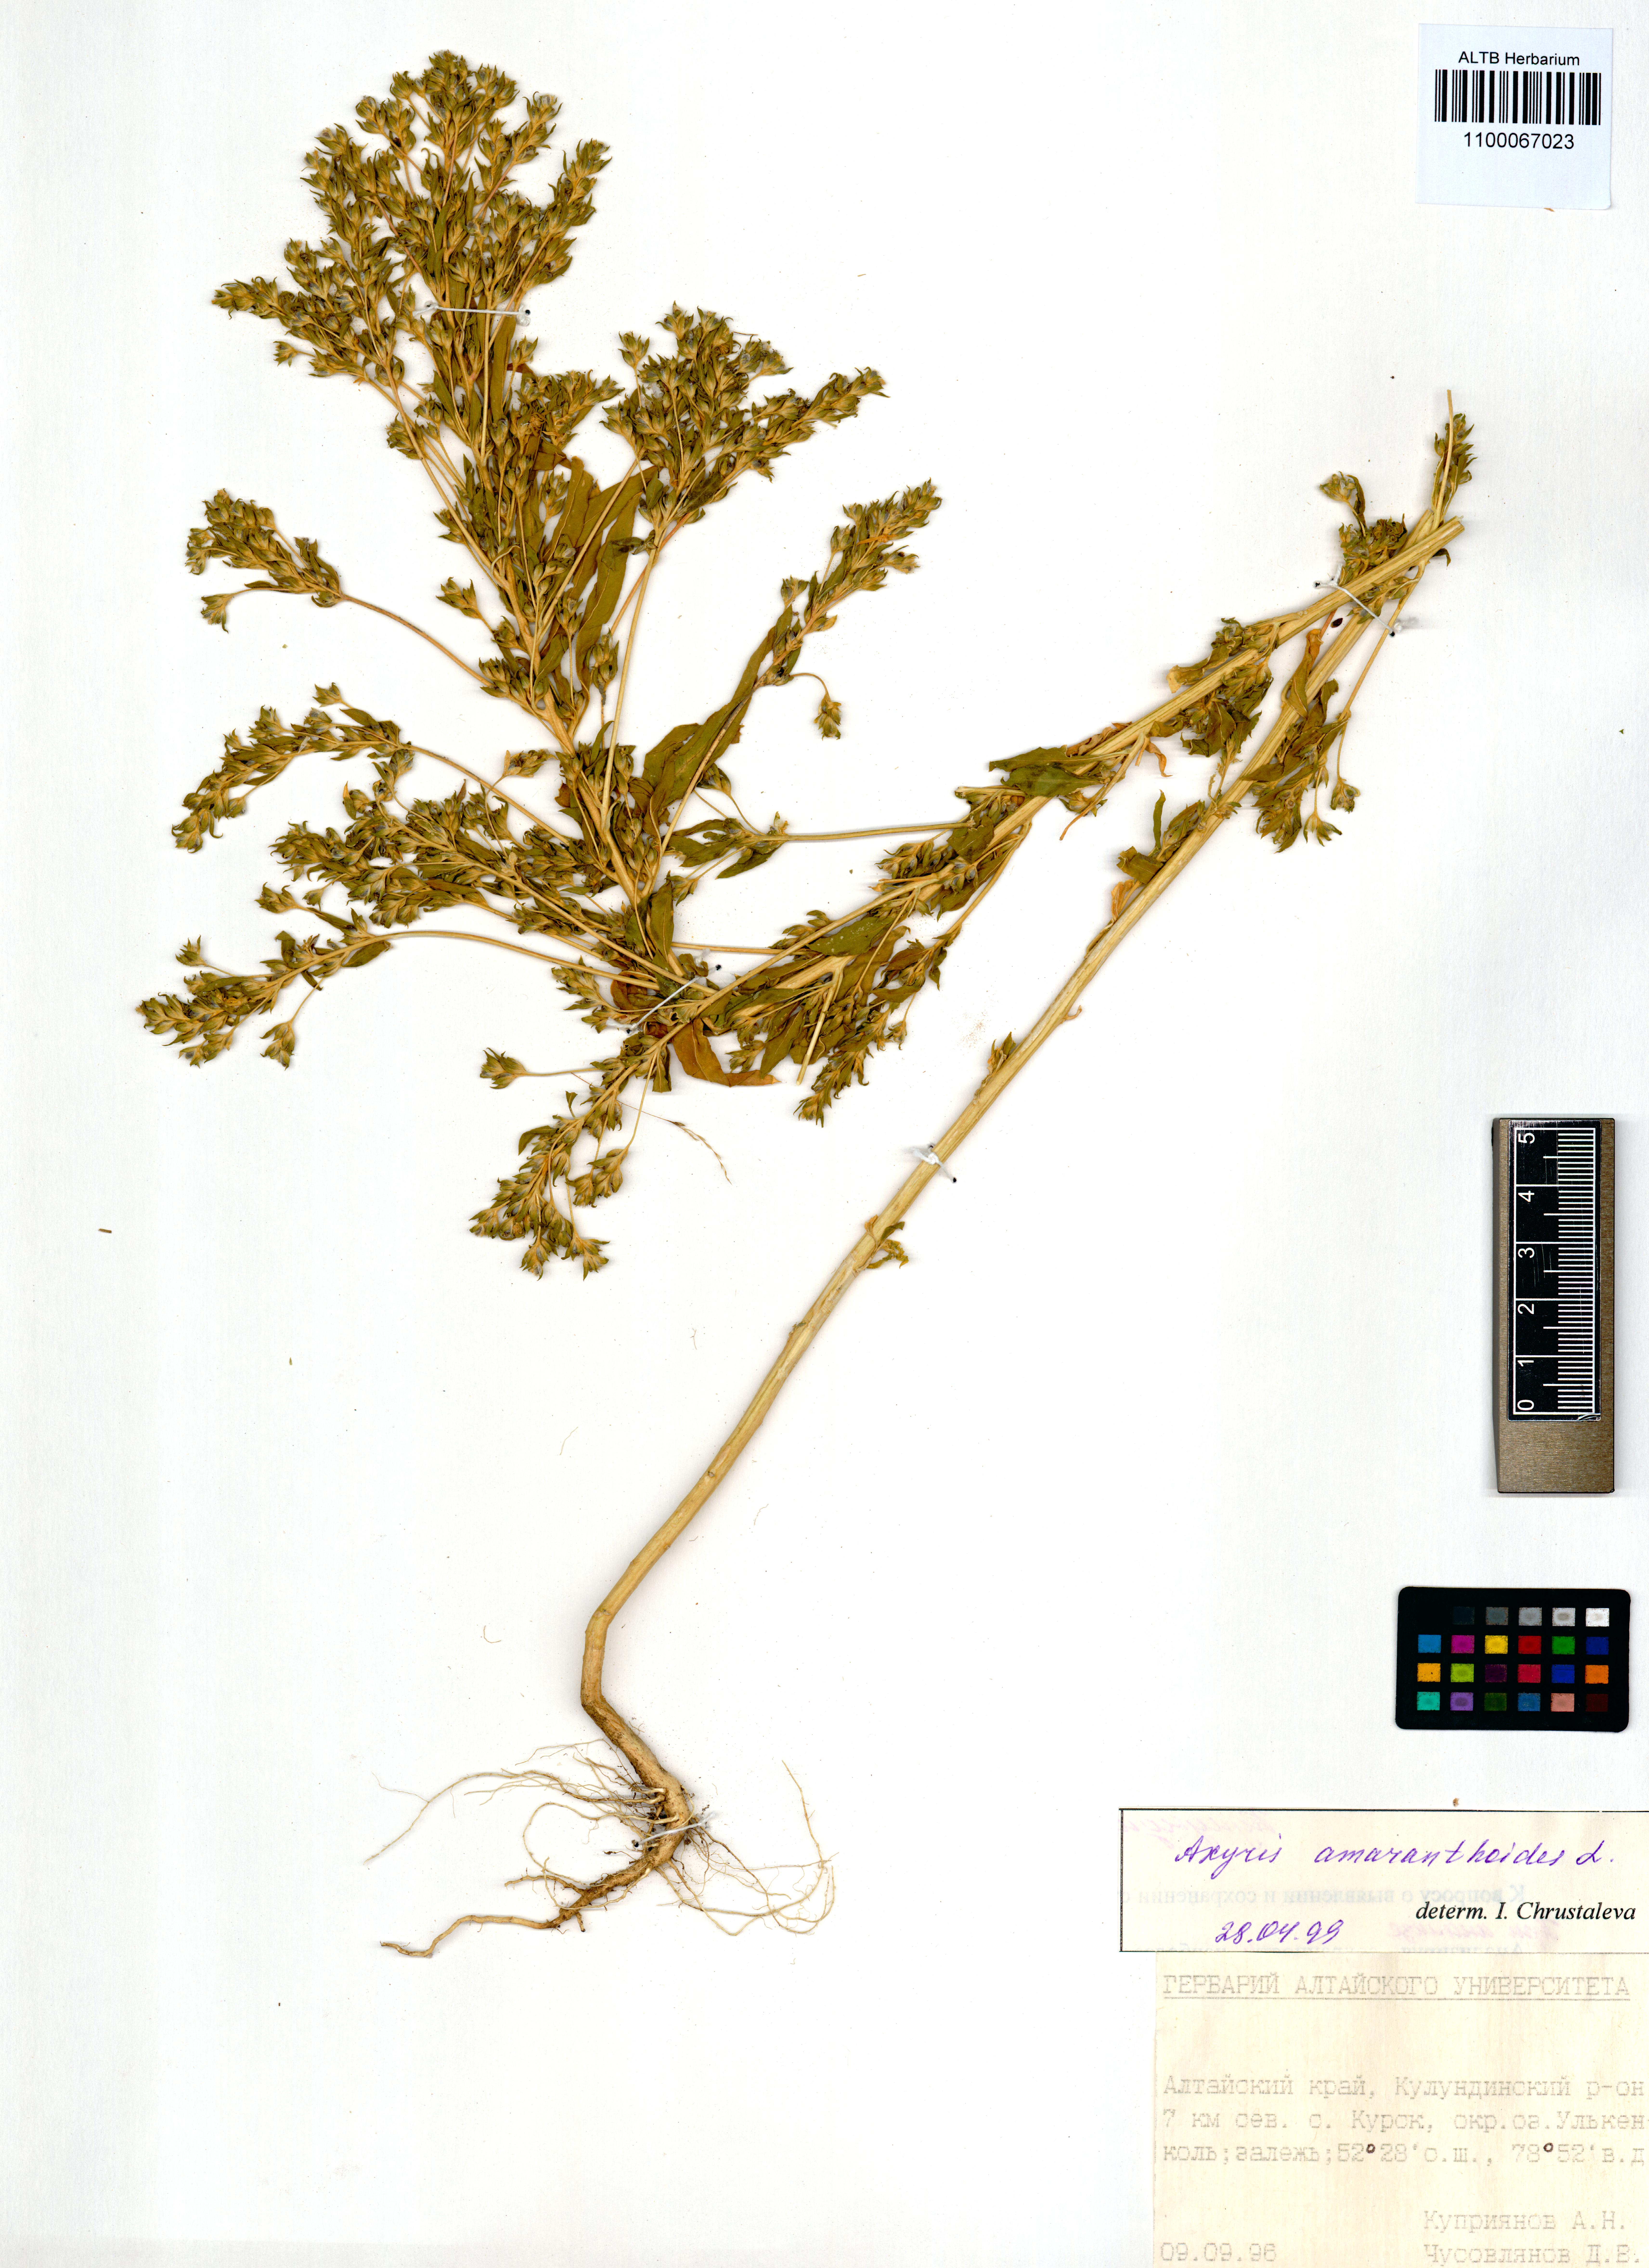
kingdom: Plantae
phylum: Tracheophyta
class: Magnoliopsida
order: Caryophyllales
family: Amaranthaceae
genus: Axyris
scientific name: Axyris amaranthoides
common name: Russian pigweed
